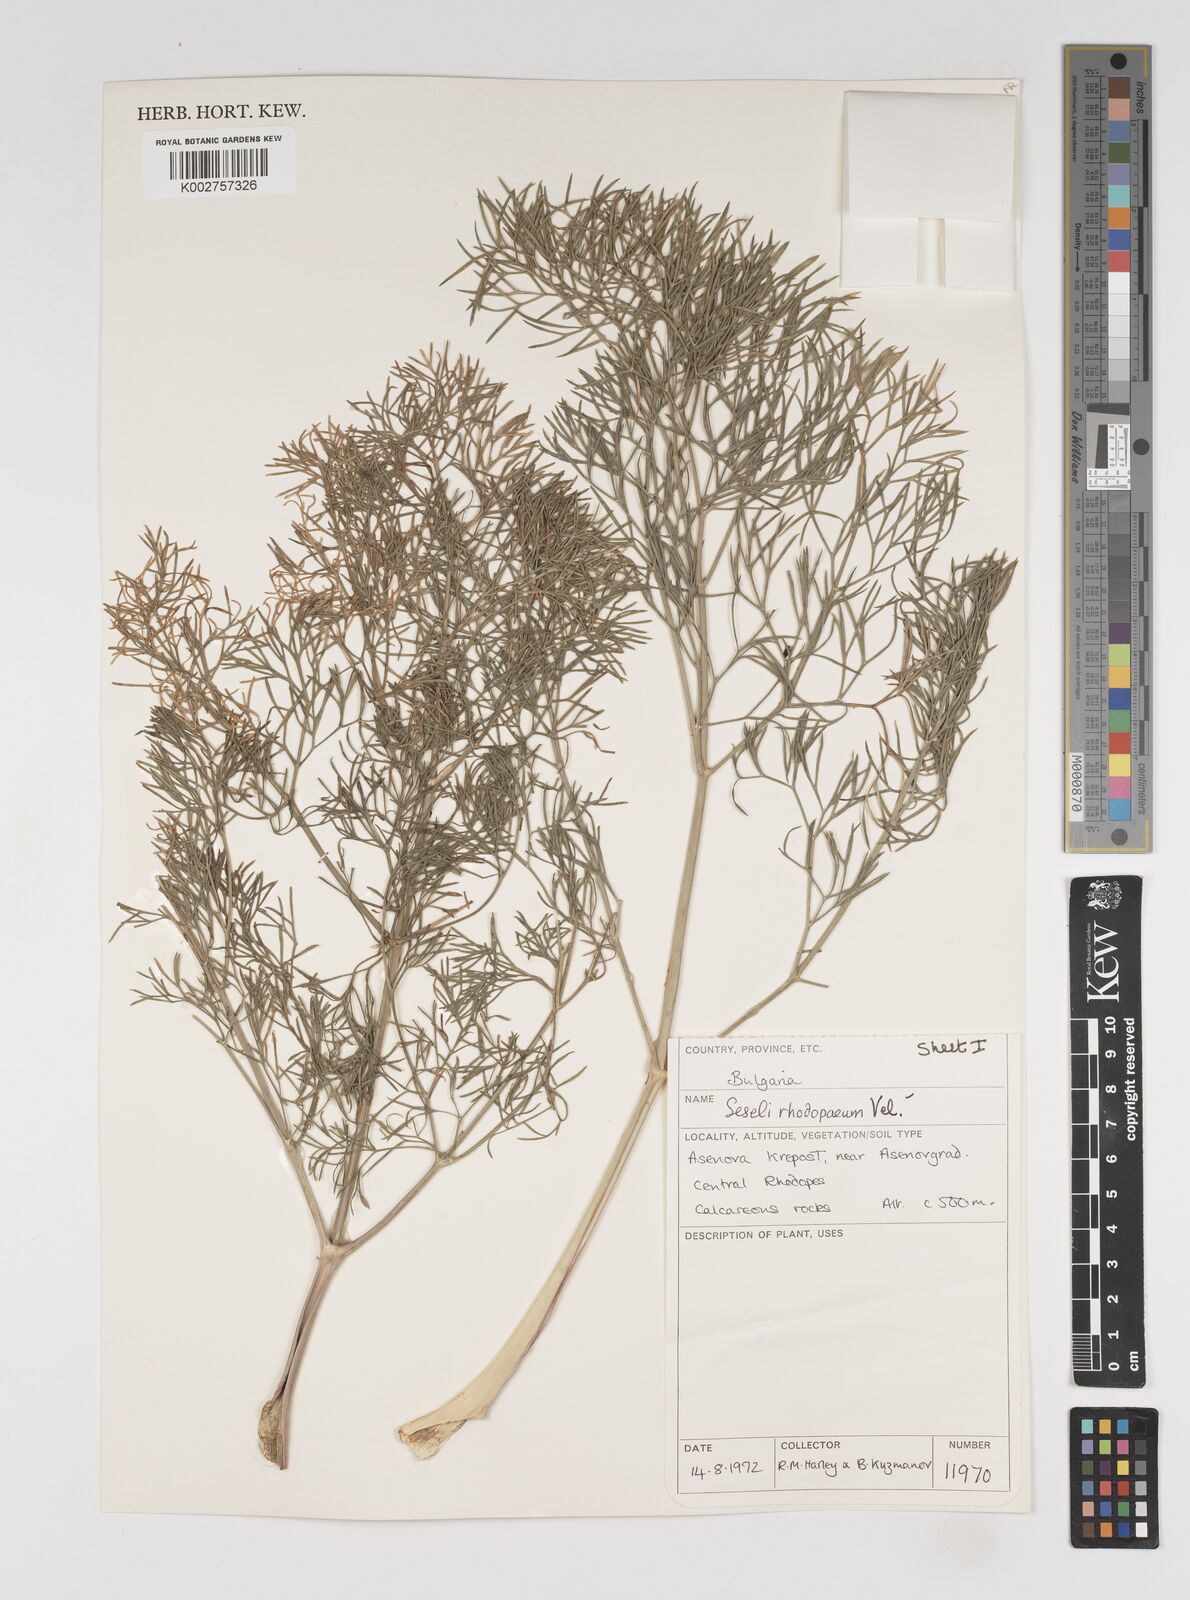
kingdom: Plantae
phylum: Tracheophyta
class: Magnoliopsida
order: Apiales
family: Apiaceae
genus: Seseli
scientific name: Seseli rhodopeum
